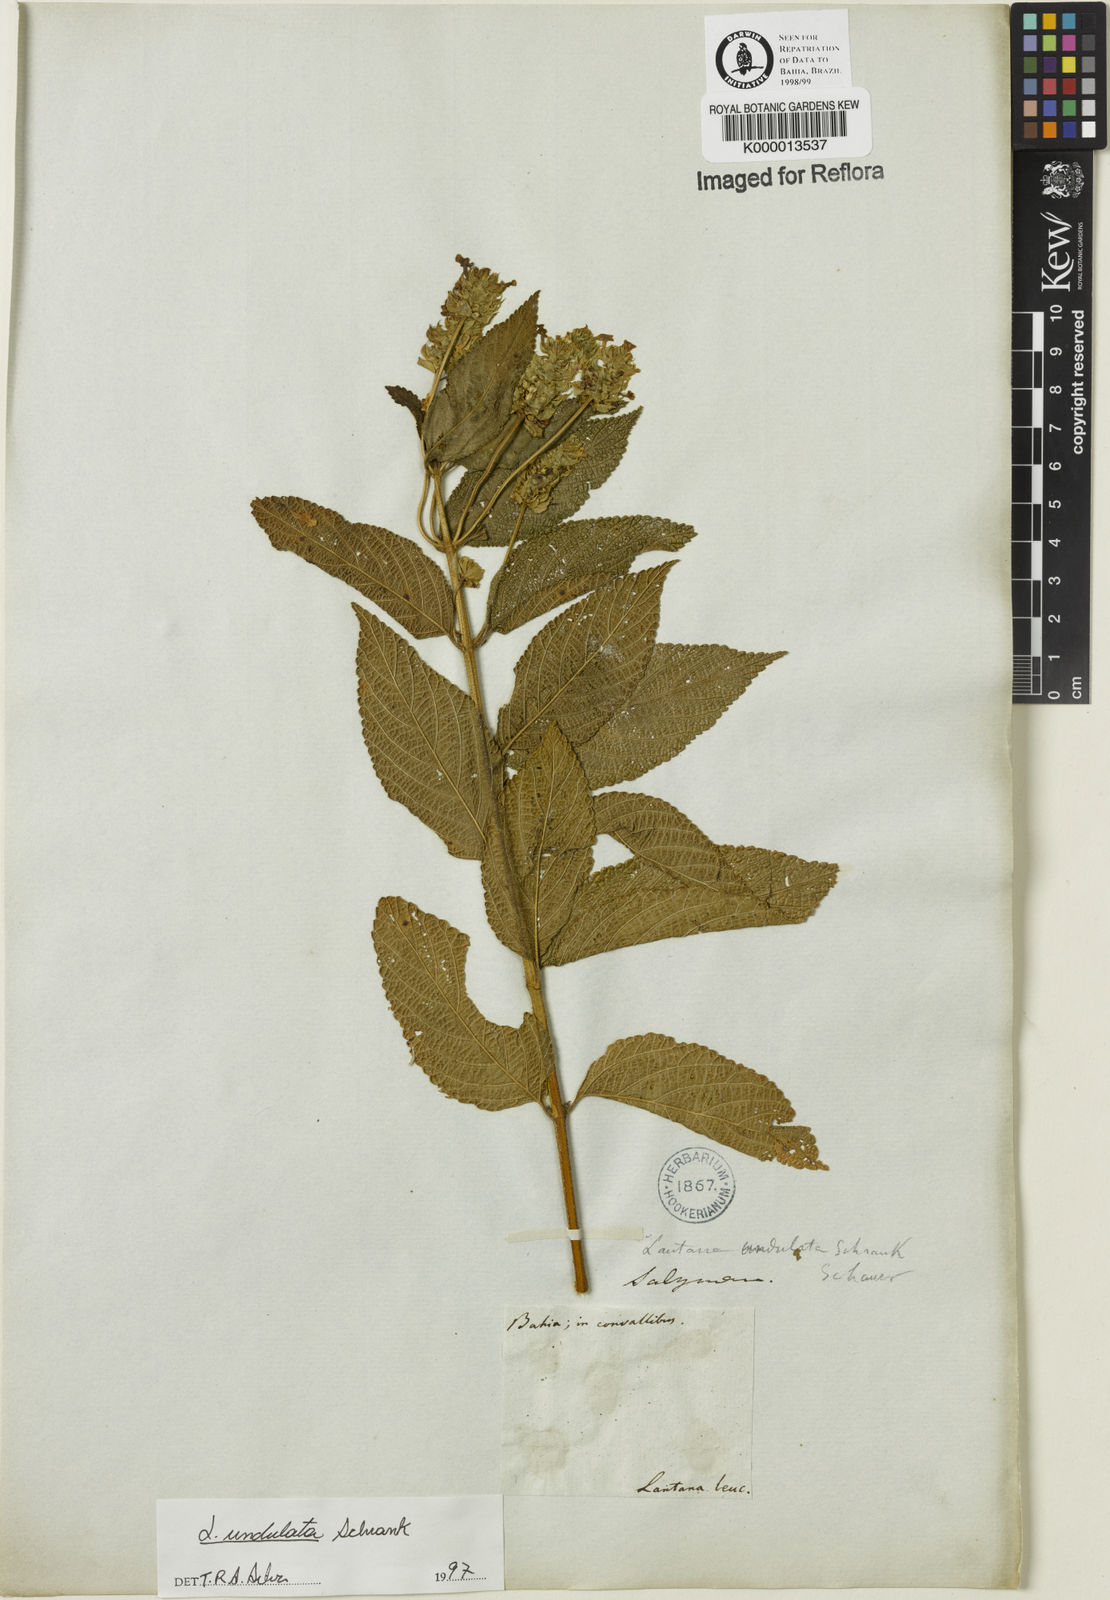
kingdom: Plantae
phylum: Tracheophyta
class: Magnoliopsida
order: Lamiales
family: Verbenaceae
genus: Lantana
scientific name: Lantana undulata
